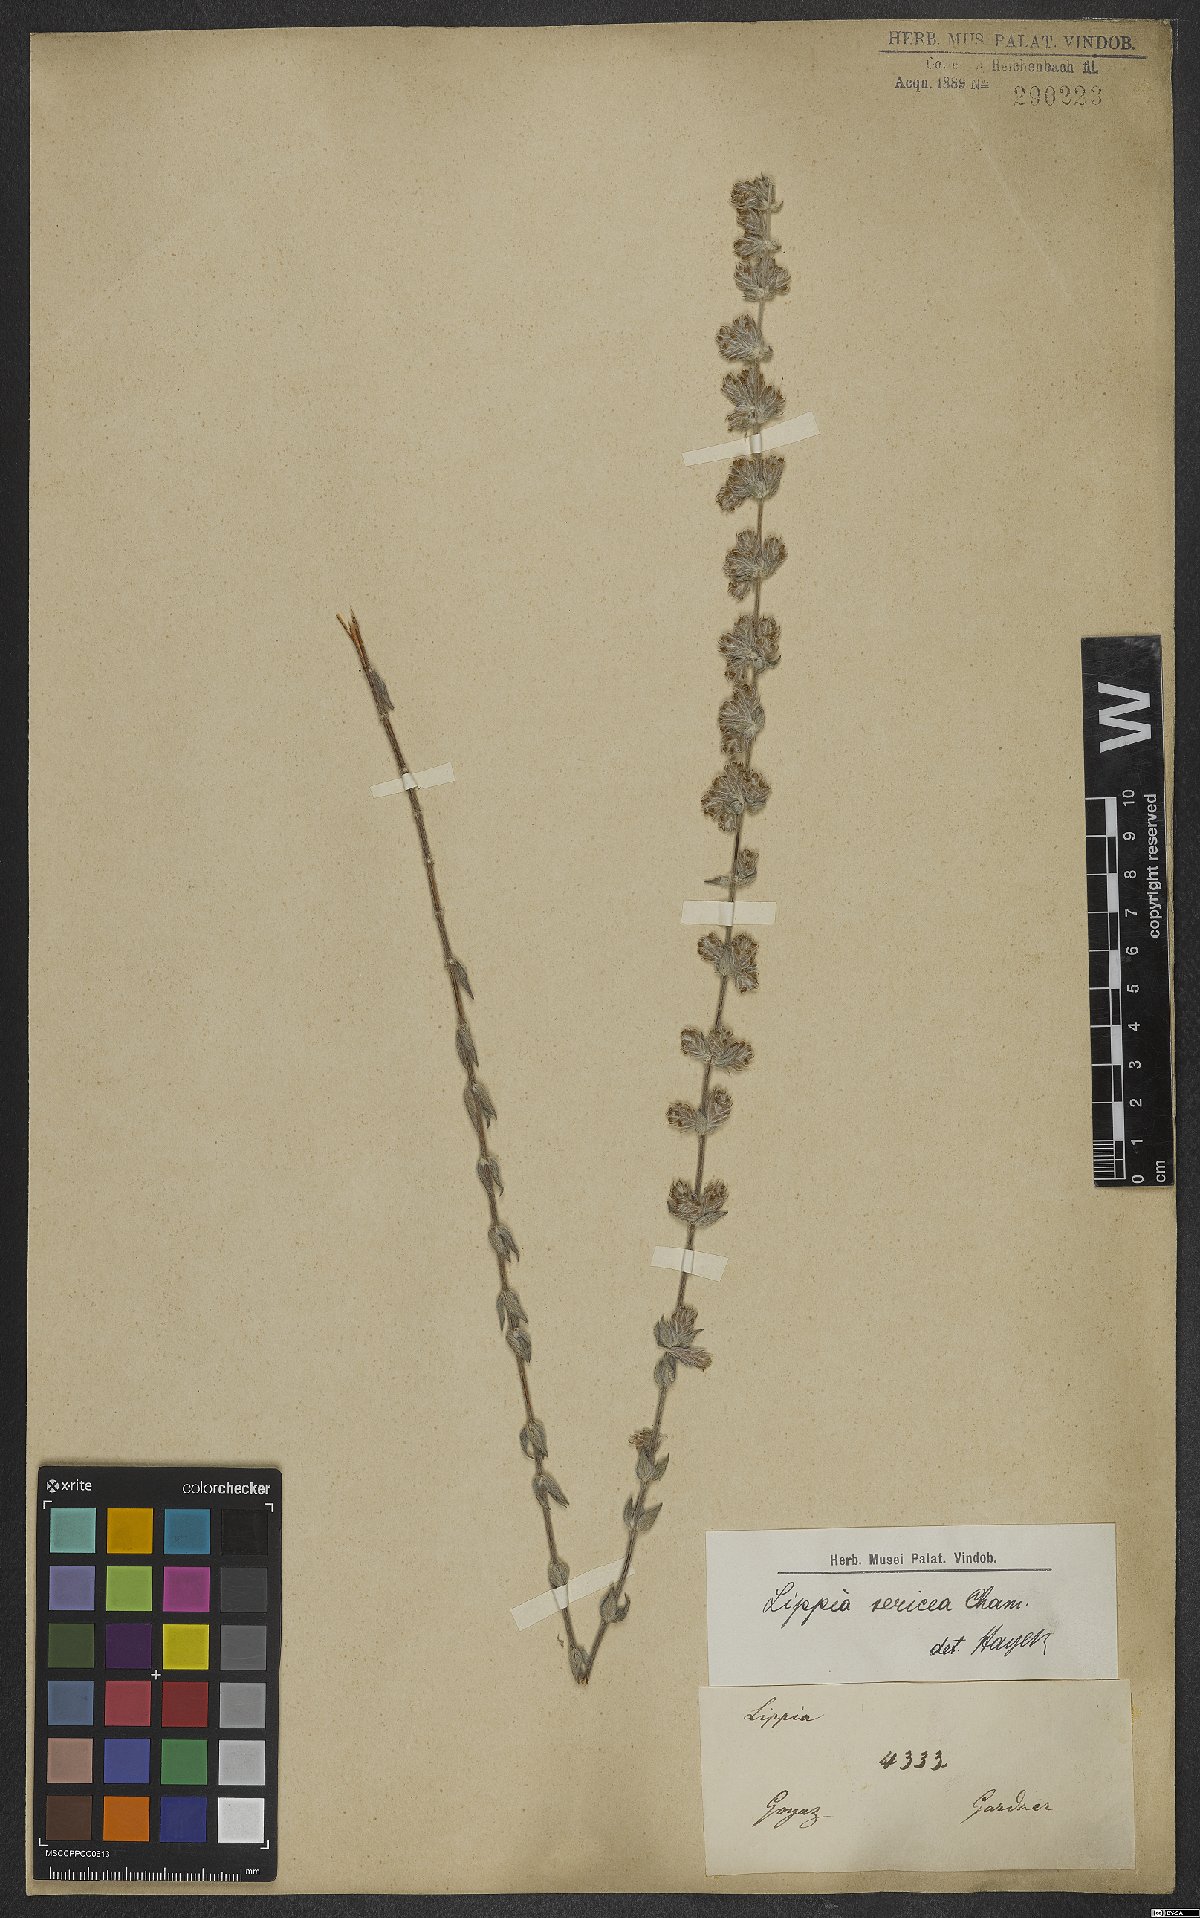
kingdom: Plantae
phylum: Tracheophyta
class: Magnoliopsida
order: Lamiales
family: Verbenaceae
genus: Lippia
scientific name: Lippia sericea
